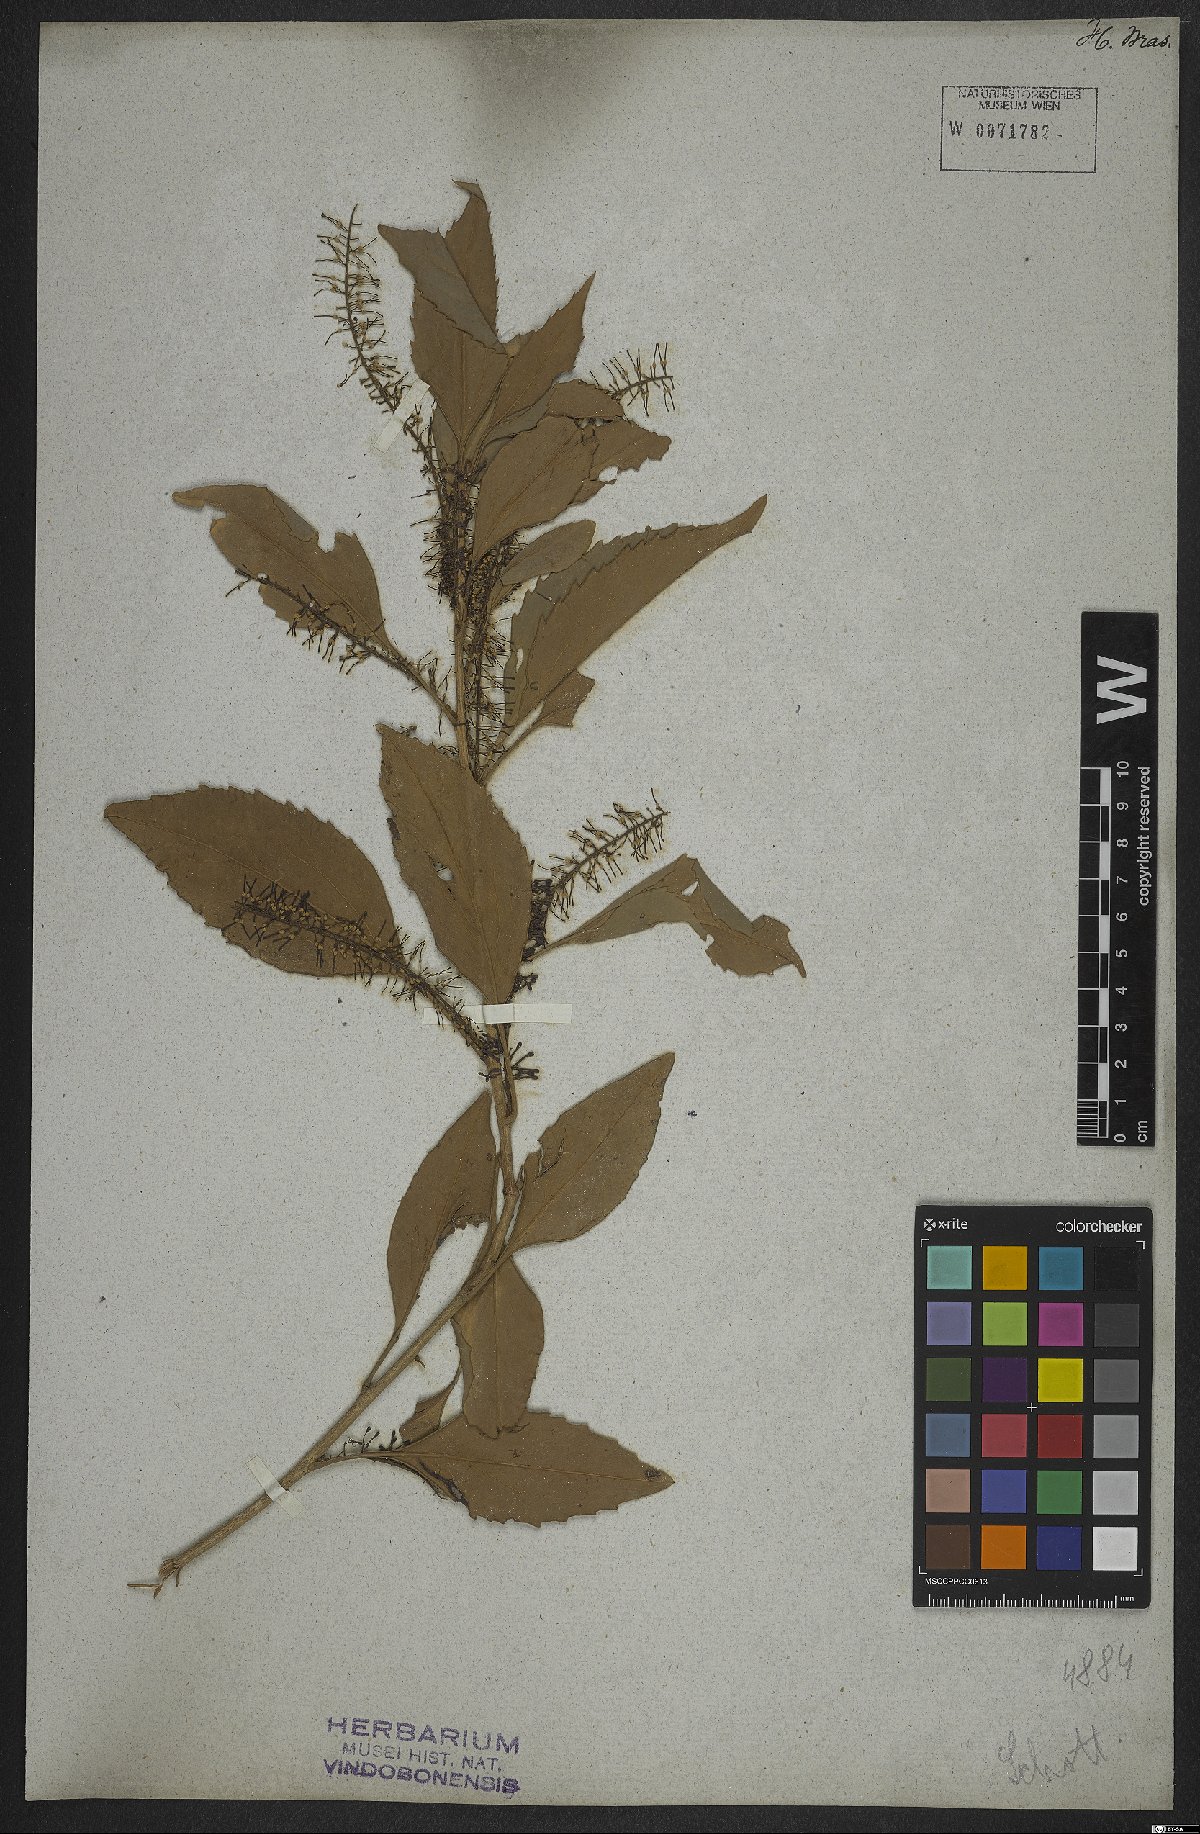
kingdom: Plantae
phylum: Tracheophyta
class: Magnoliopsida
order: Proteales
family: Proteaceae
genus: Roupala
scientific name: Roupala longepetiolata
